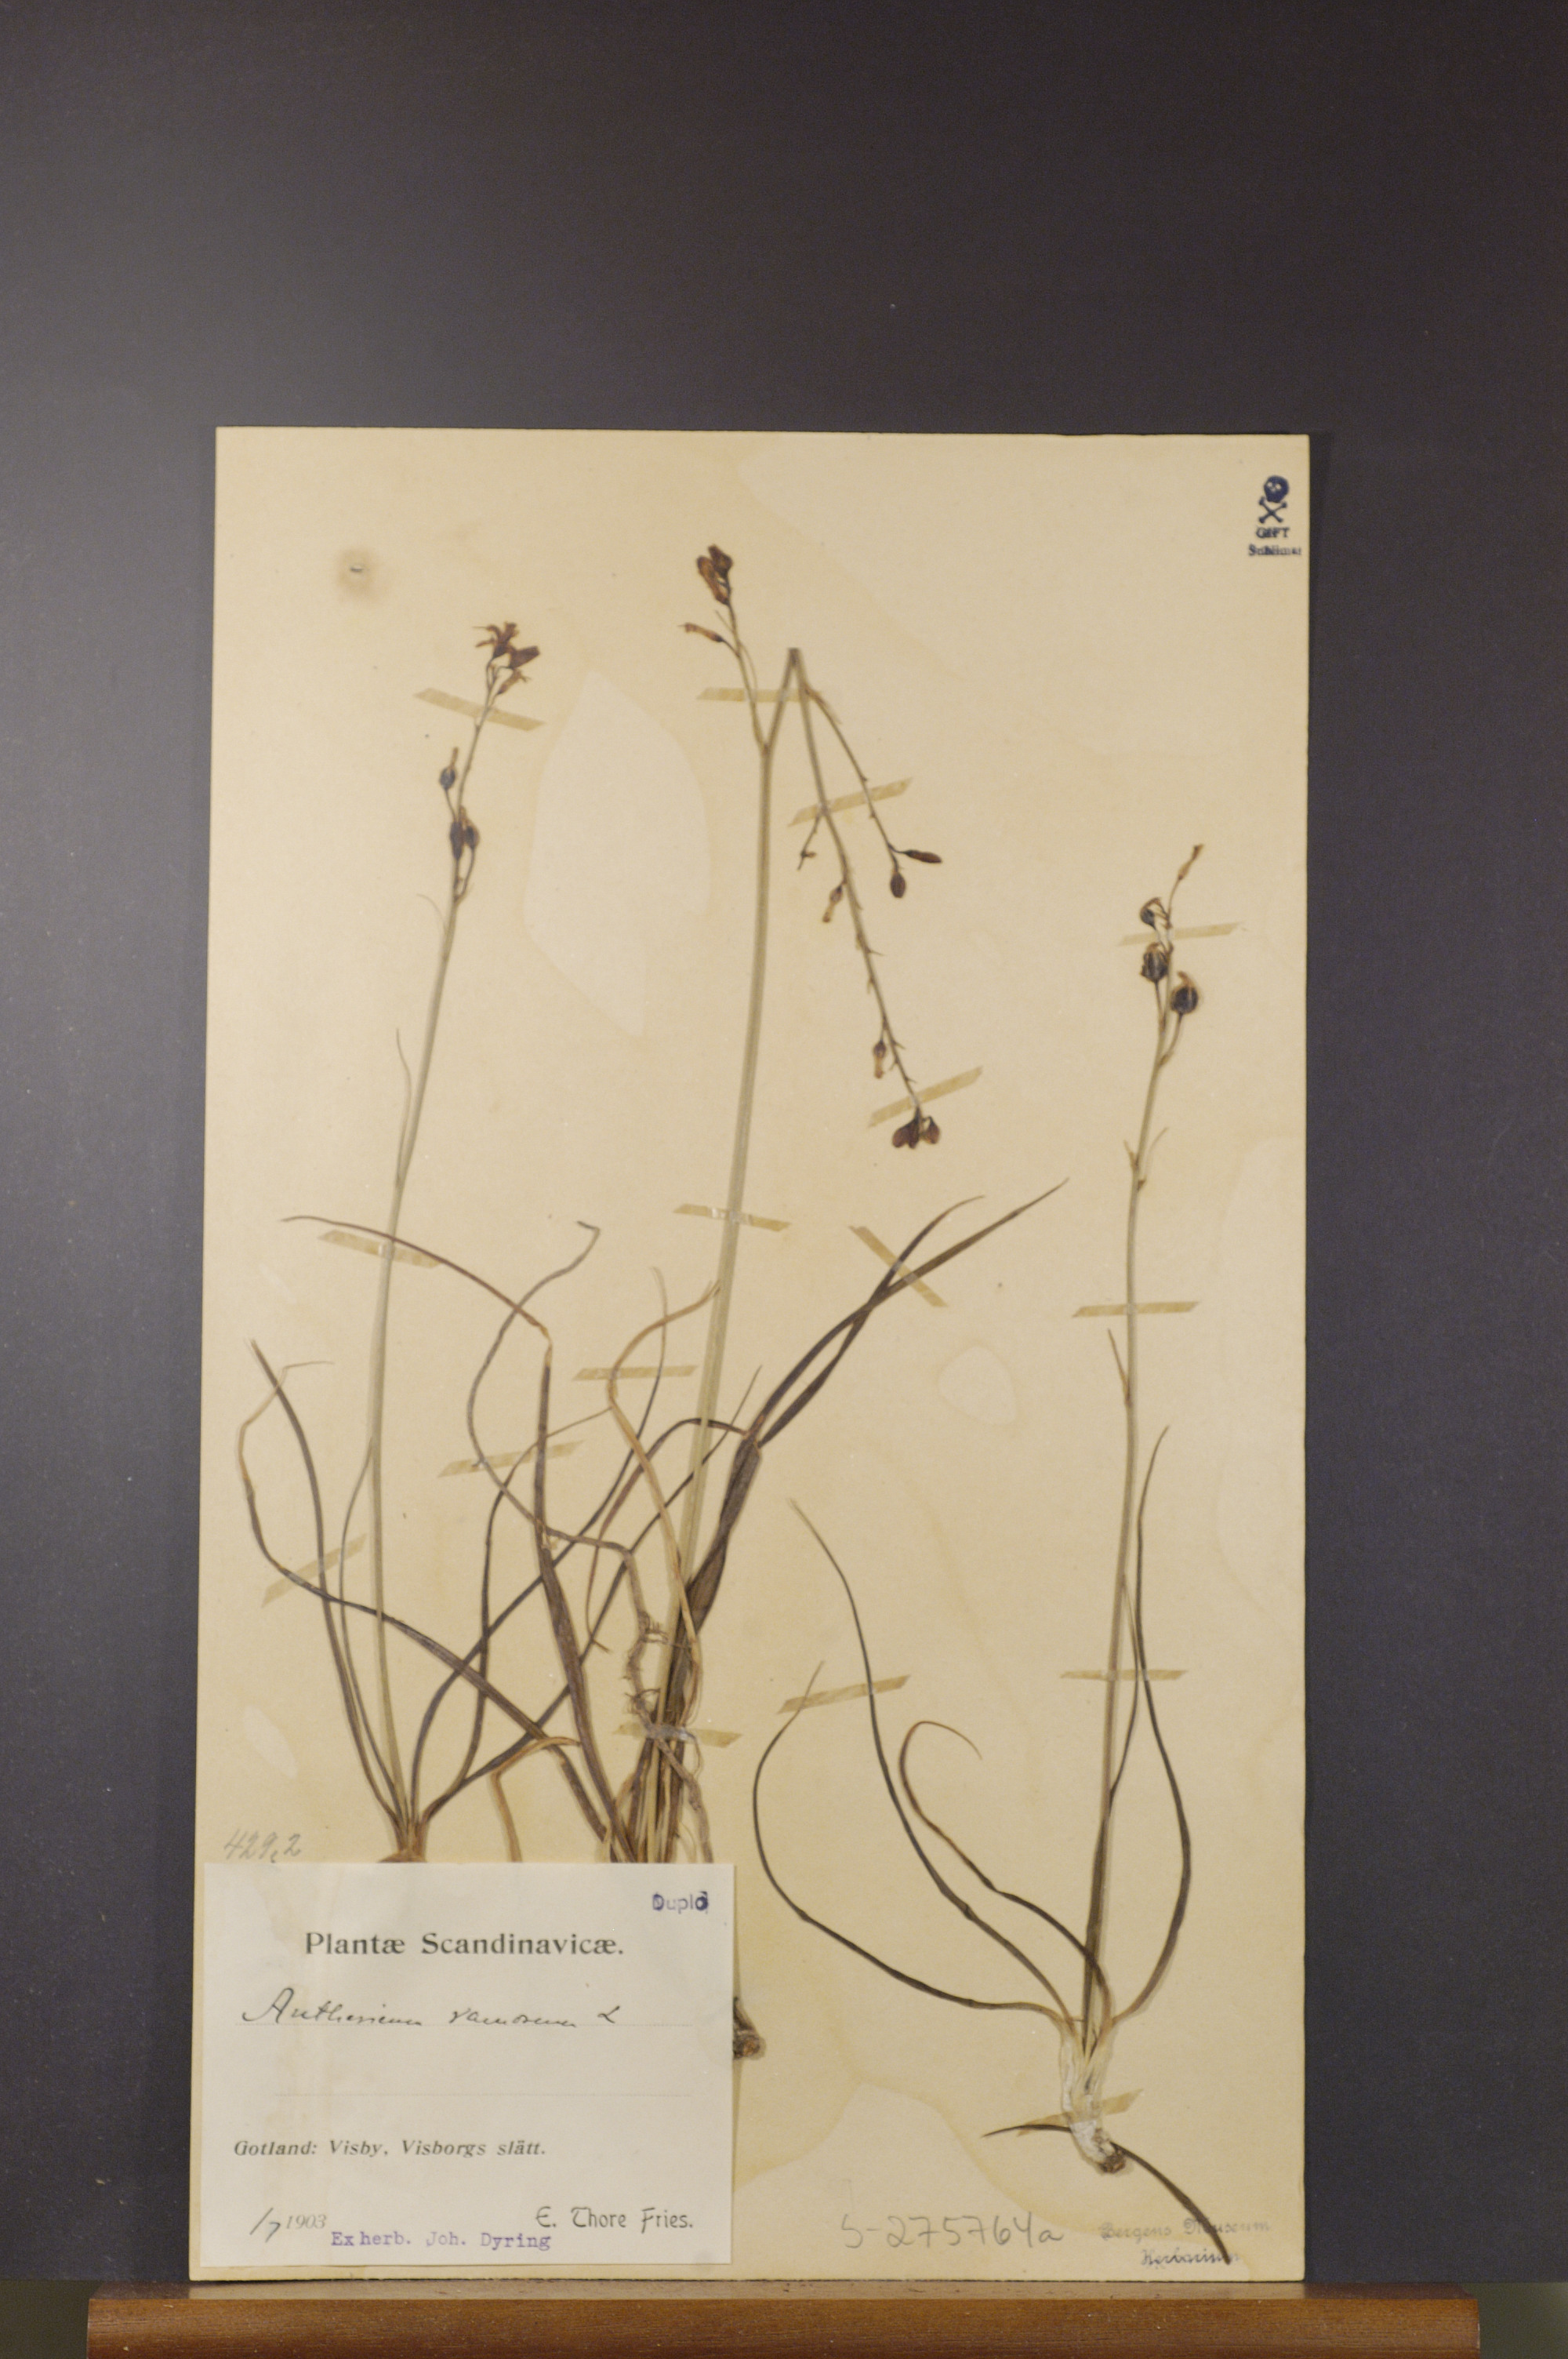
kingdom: Plantae
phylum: Tracheophyta
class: Liliopsida
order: Asparagales
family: Asparagaceae
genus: Anthericum
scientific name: Anthericum ramosum
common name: Branched st. bernard's-lily
